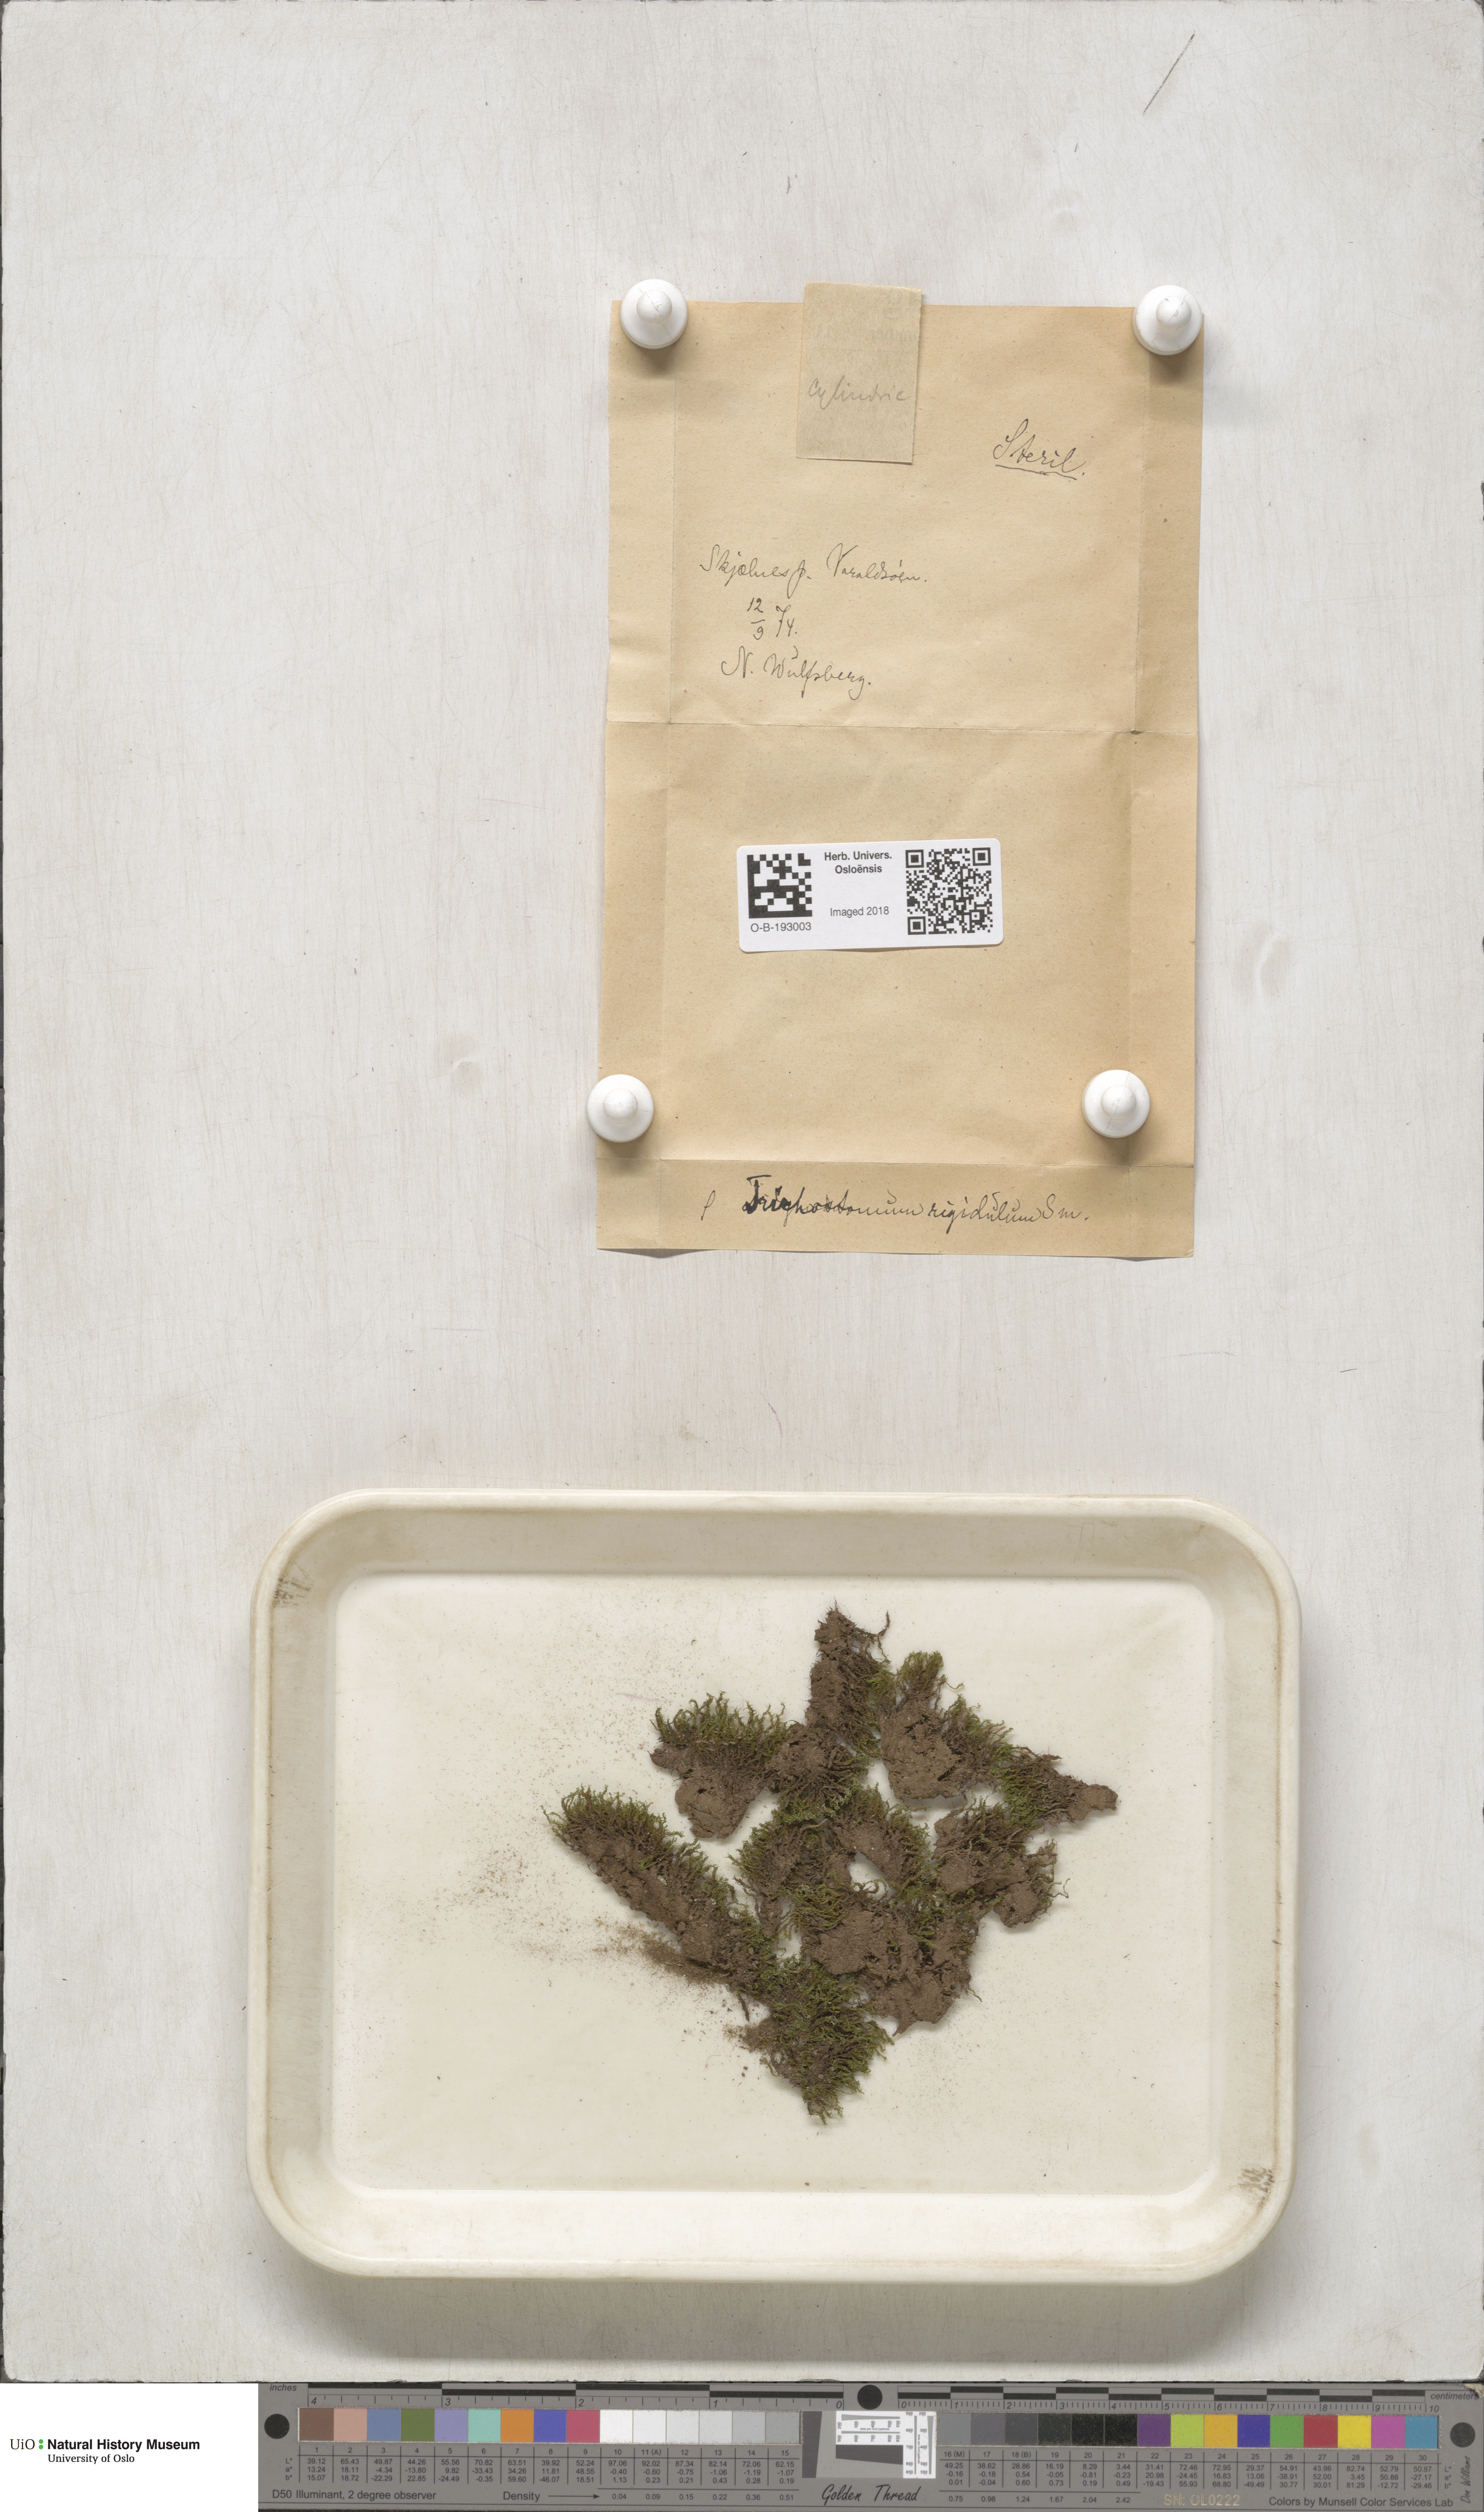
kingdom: Plantae
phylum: Bryophyta
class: Bryopsida
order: Pottiales
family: Pottiaceae
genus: Chionoloma
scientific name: Chionoloma tenuirostre
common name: Narrow-fruited crisp-moss
